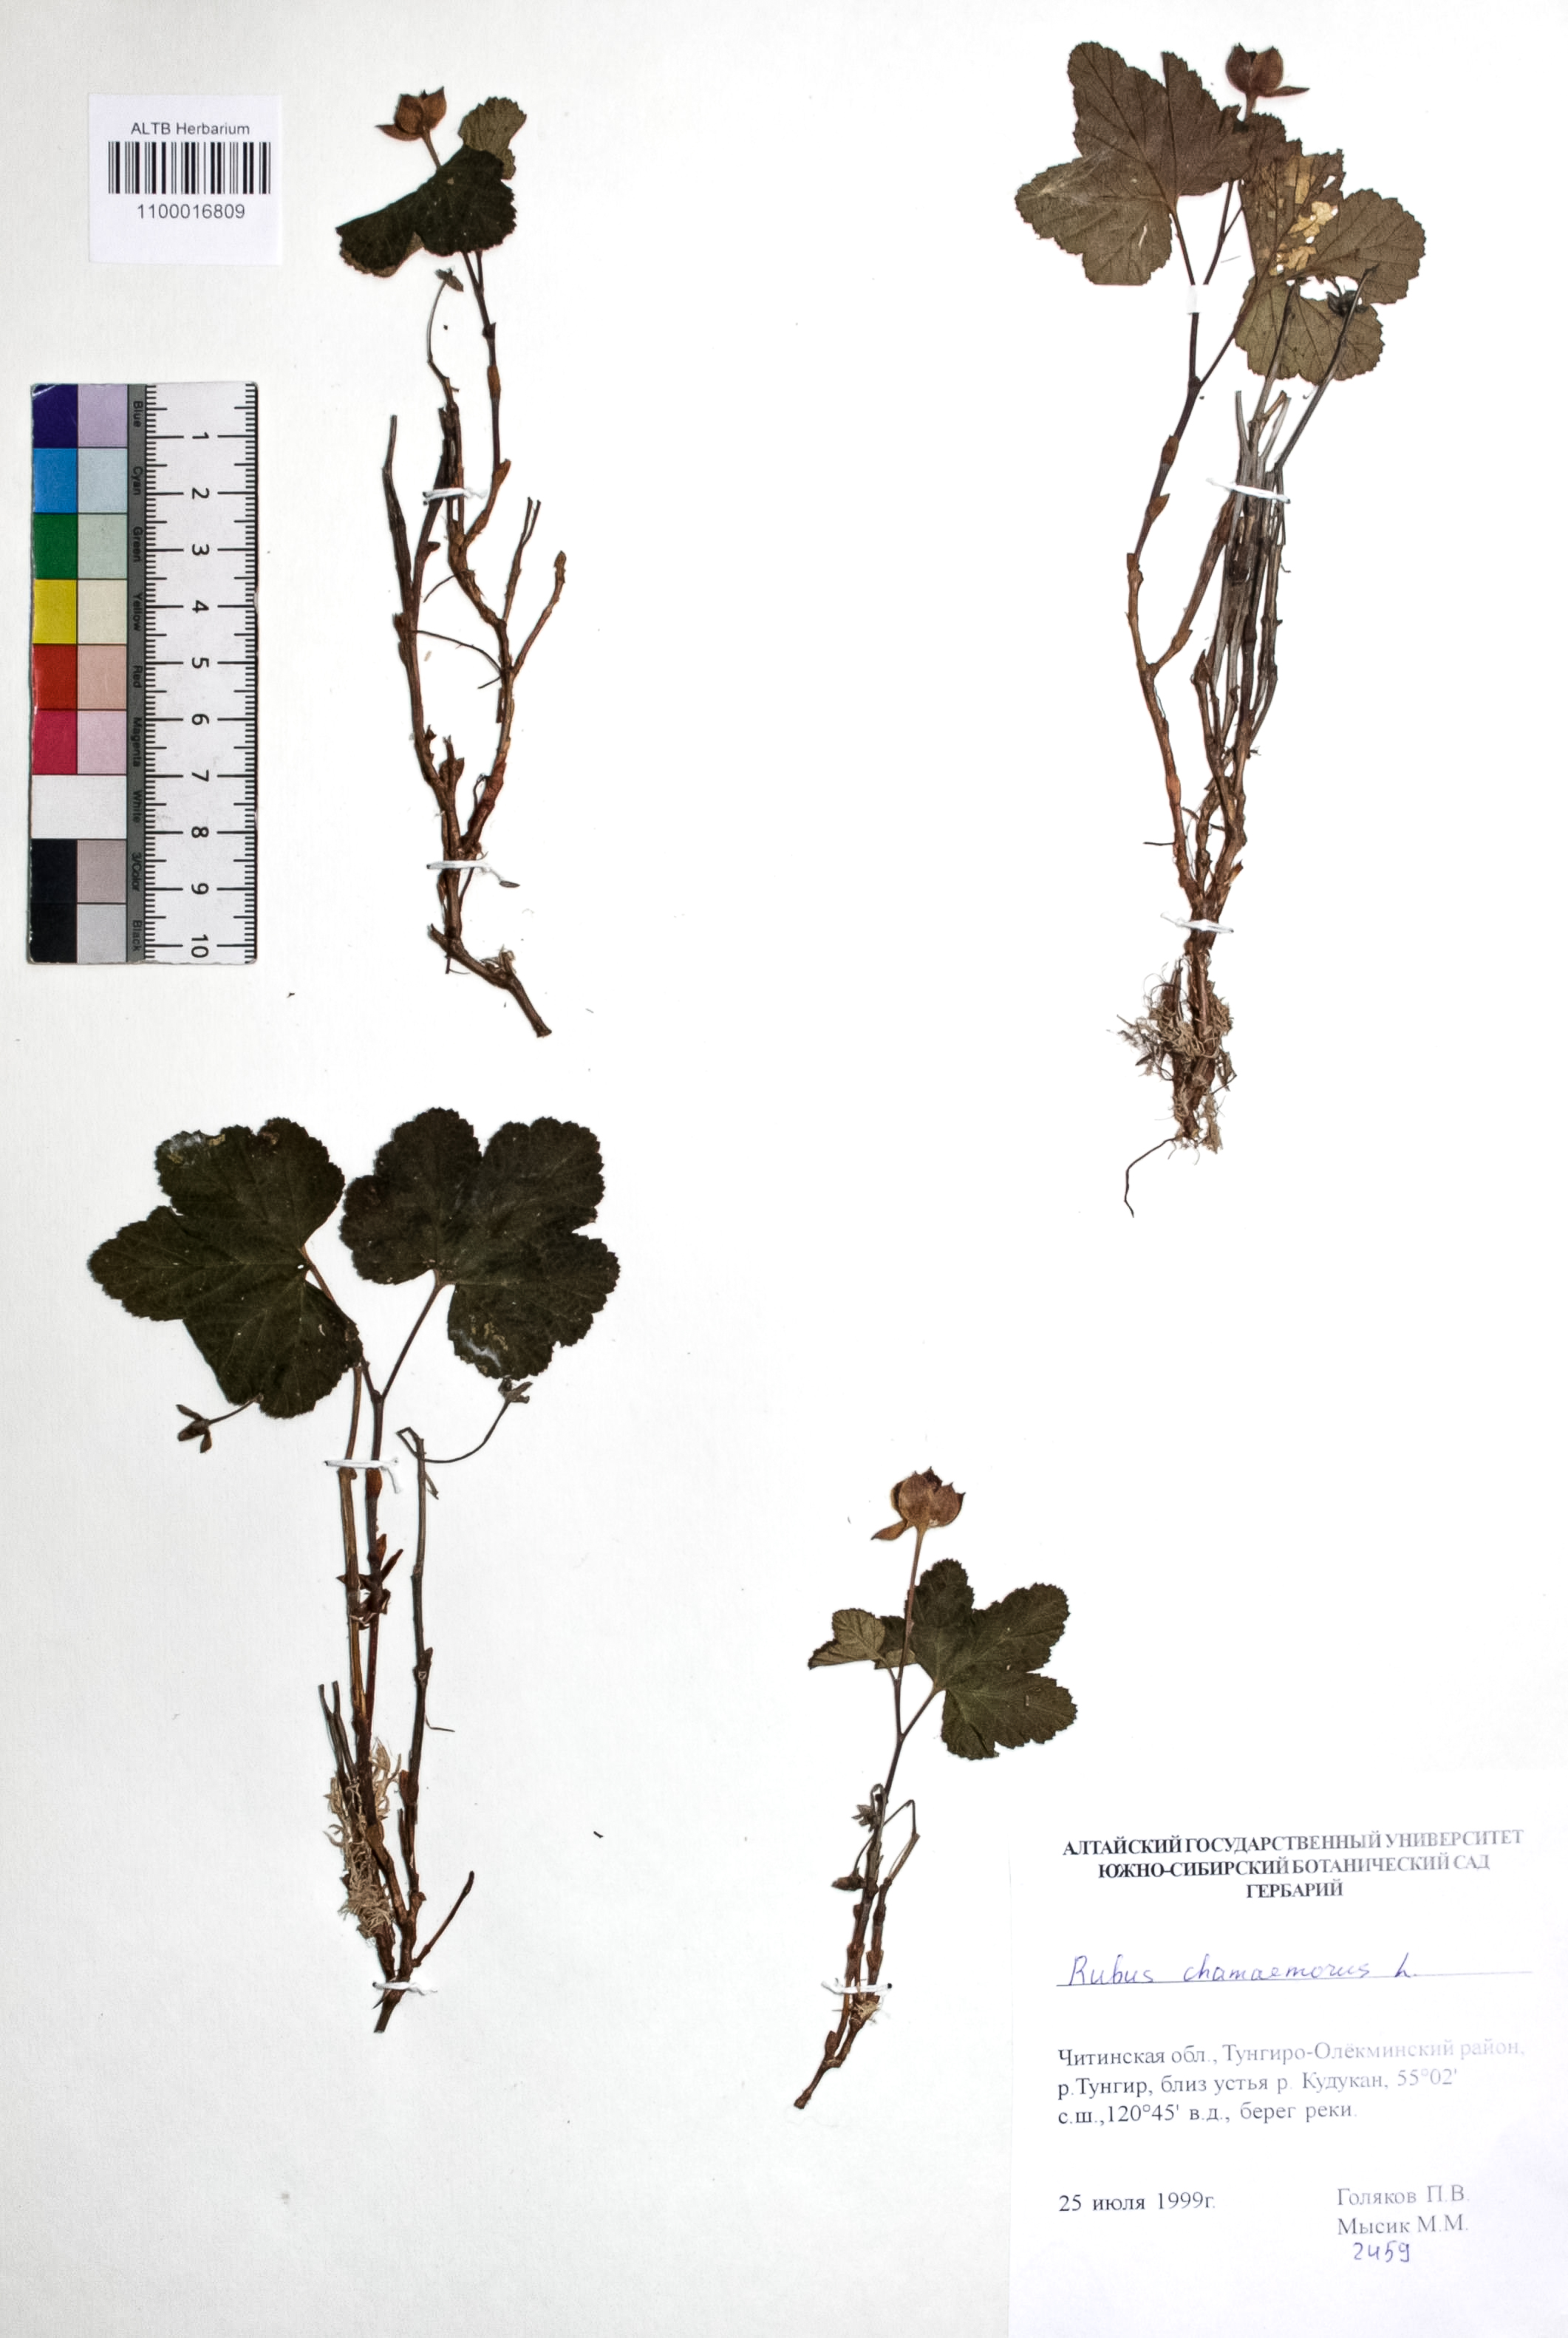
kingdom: Plantae
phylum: Tracheophyta
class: Magnoliopsida
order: Rosales
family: Rosaceae
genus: Rubus
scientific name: Rubus chamaemorus
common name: Cloudberry
